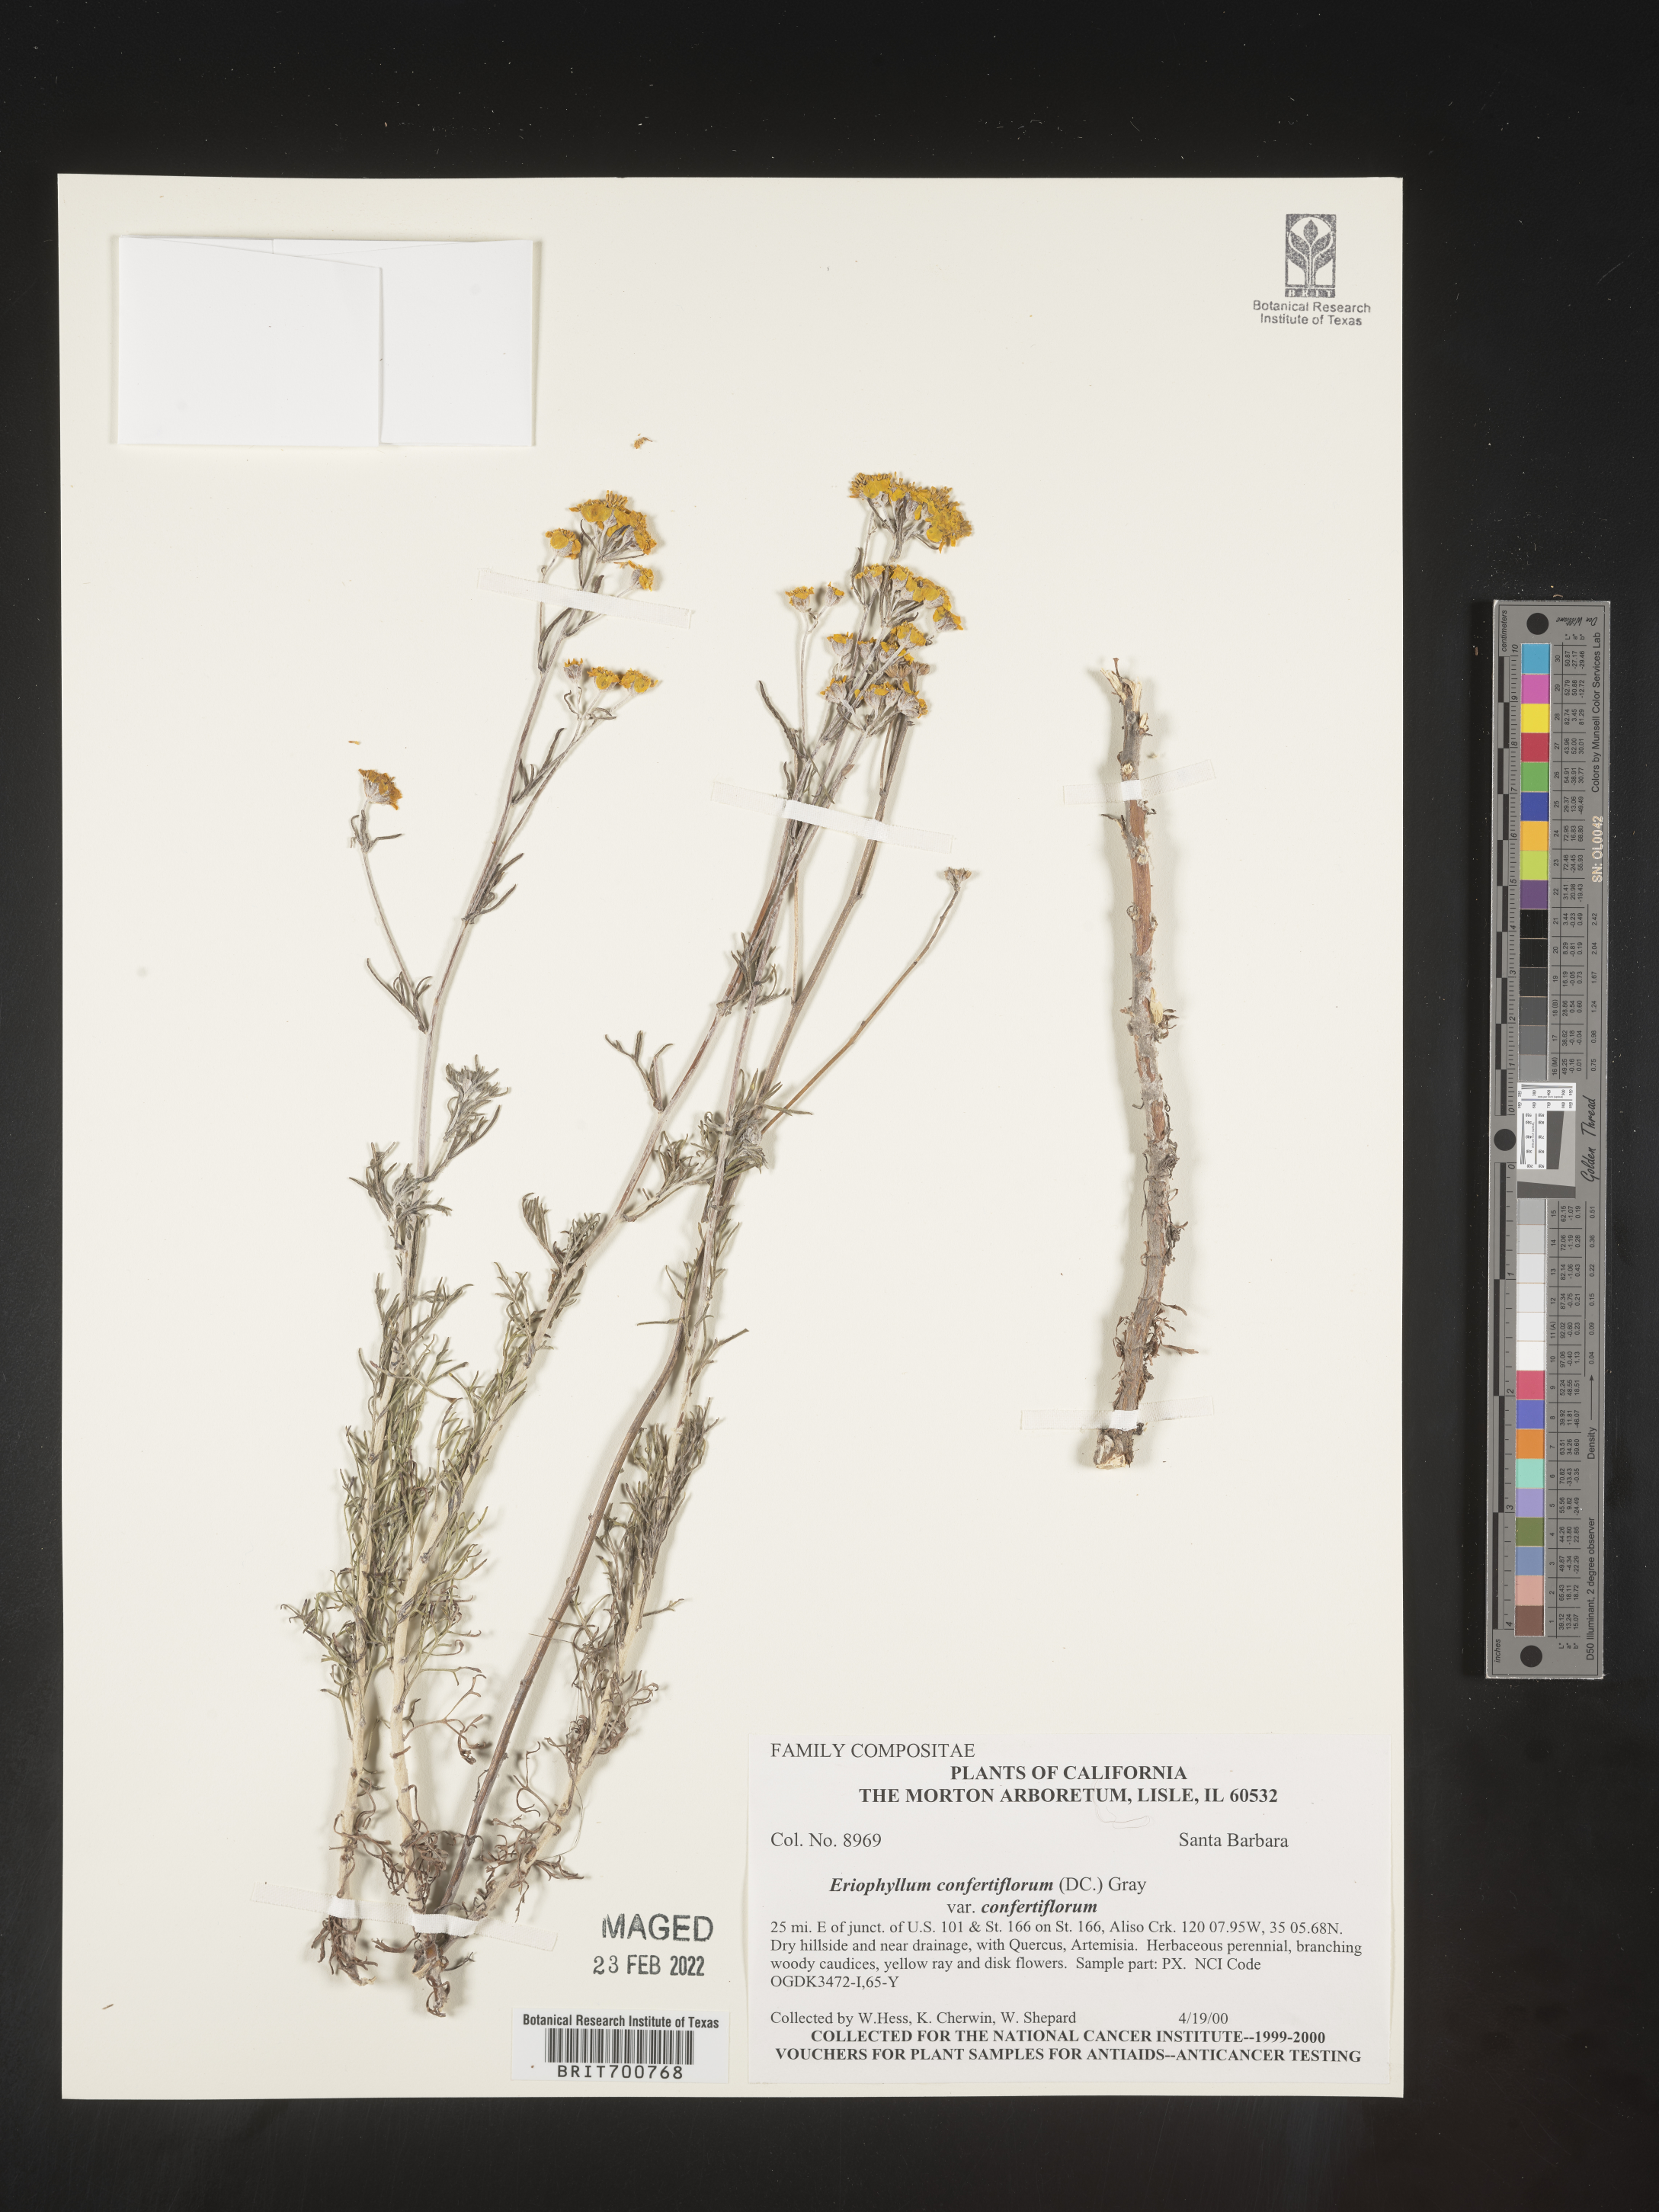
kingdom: Plantae
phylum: Tracheophyta
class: Magnoliopsida
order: Asterales
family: Asteraceae
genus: Eriophyllum
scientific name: Eriophyllum confertiflorum
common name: Golden-yarrow
